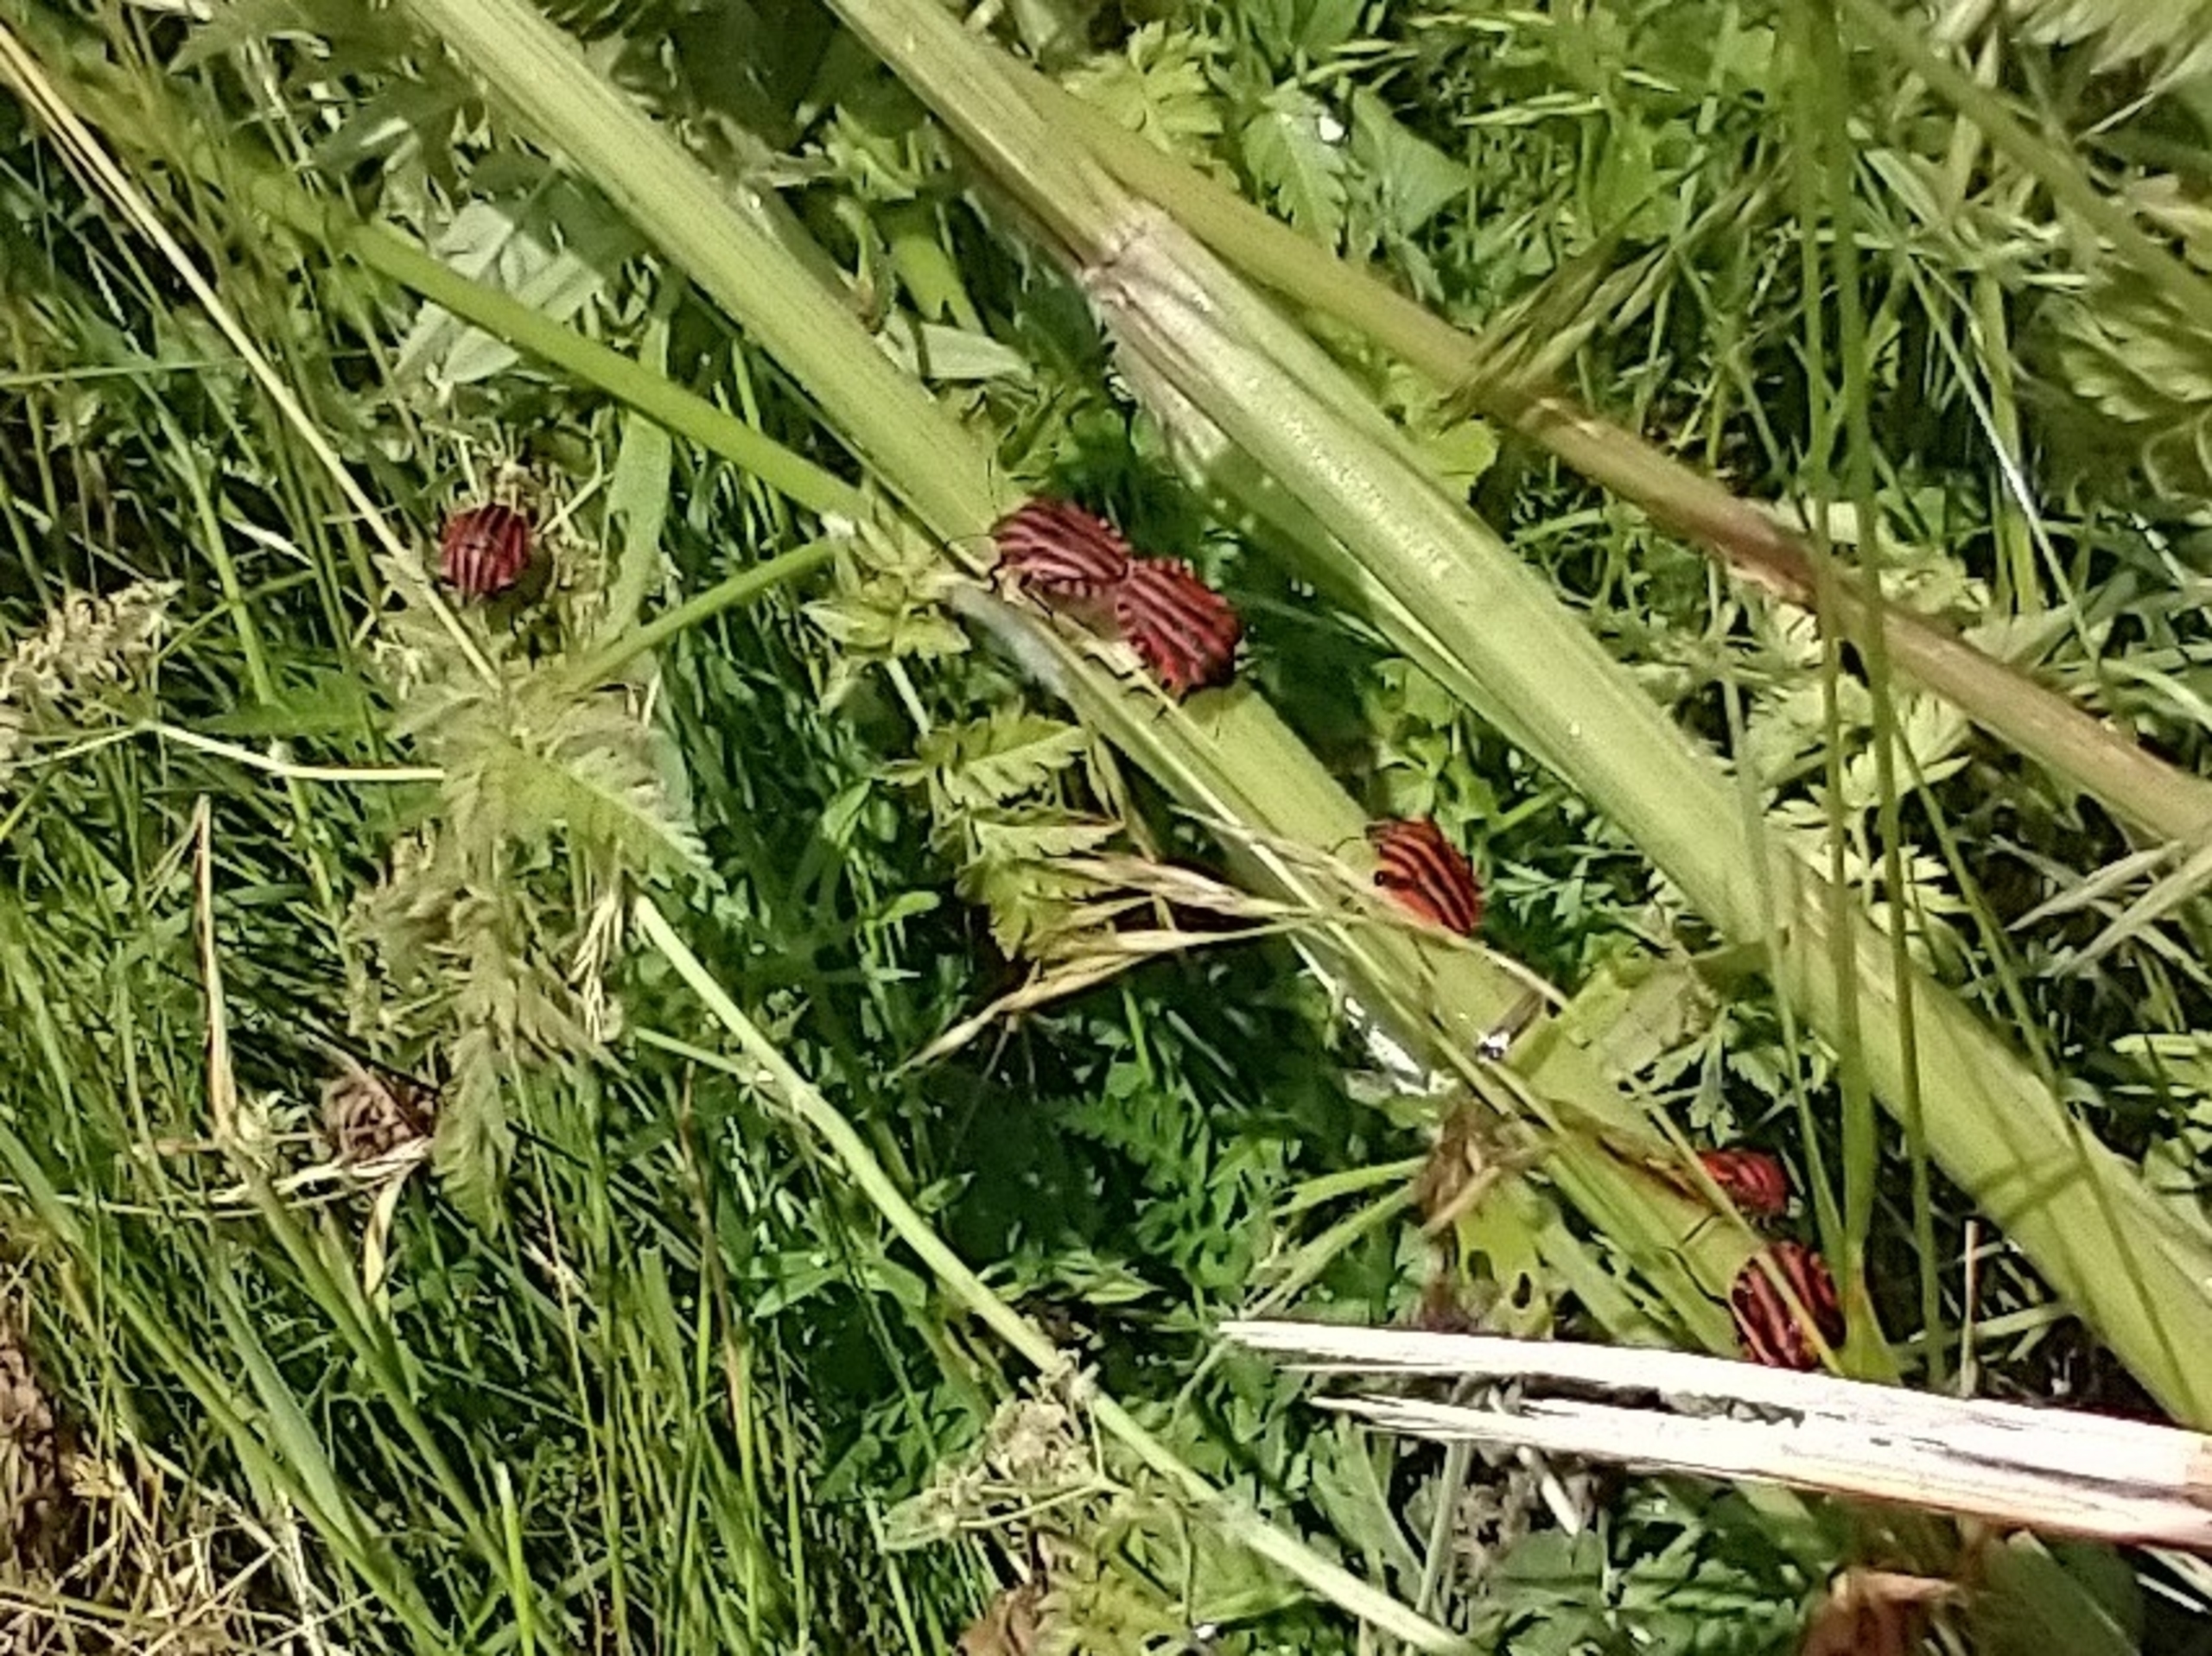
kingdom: Animalia
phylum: Arthropoda
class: Insecta
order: Hemiptera
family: Pentatomidae
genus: Graphosoma
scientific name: Graphosoma italicum
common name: Stribetæge
